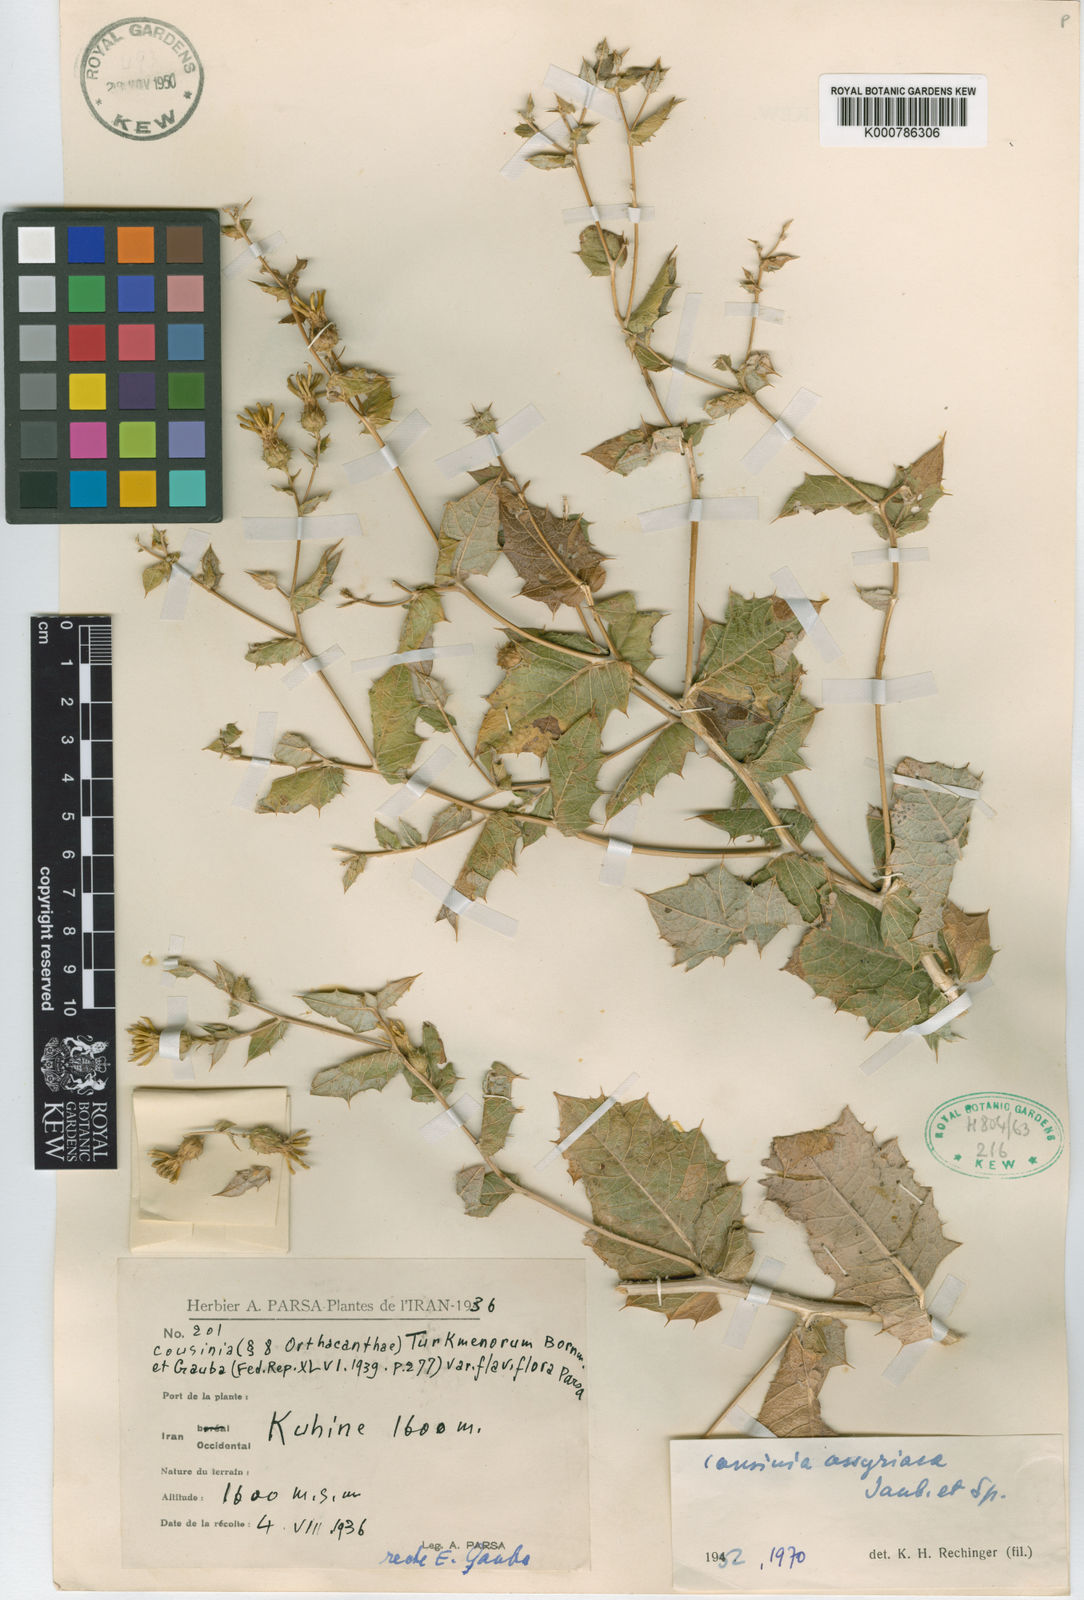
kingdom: Plantae
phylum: Tracheophyta
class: Magnoliopsida
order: Asterales
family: Asteraceae
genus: Cousinia
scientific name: Cousinia assyriaca
